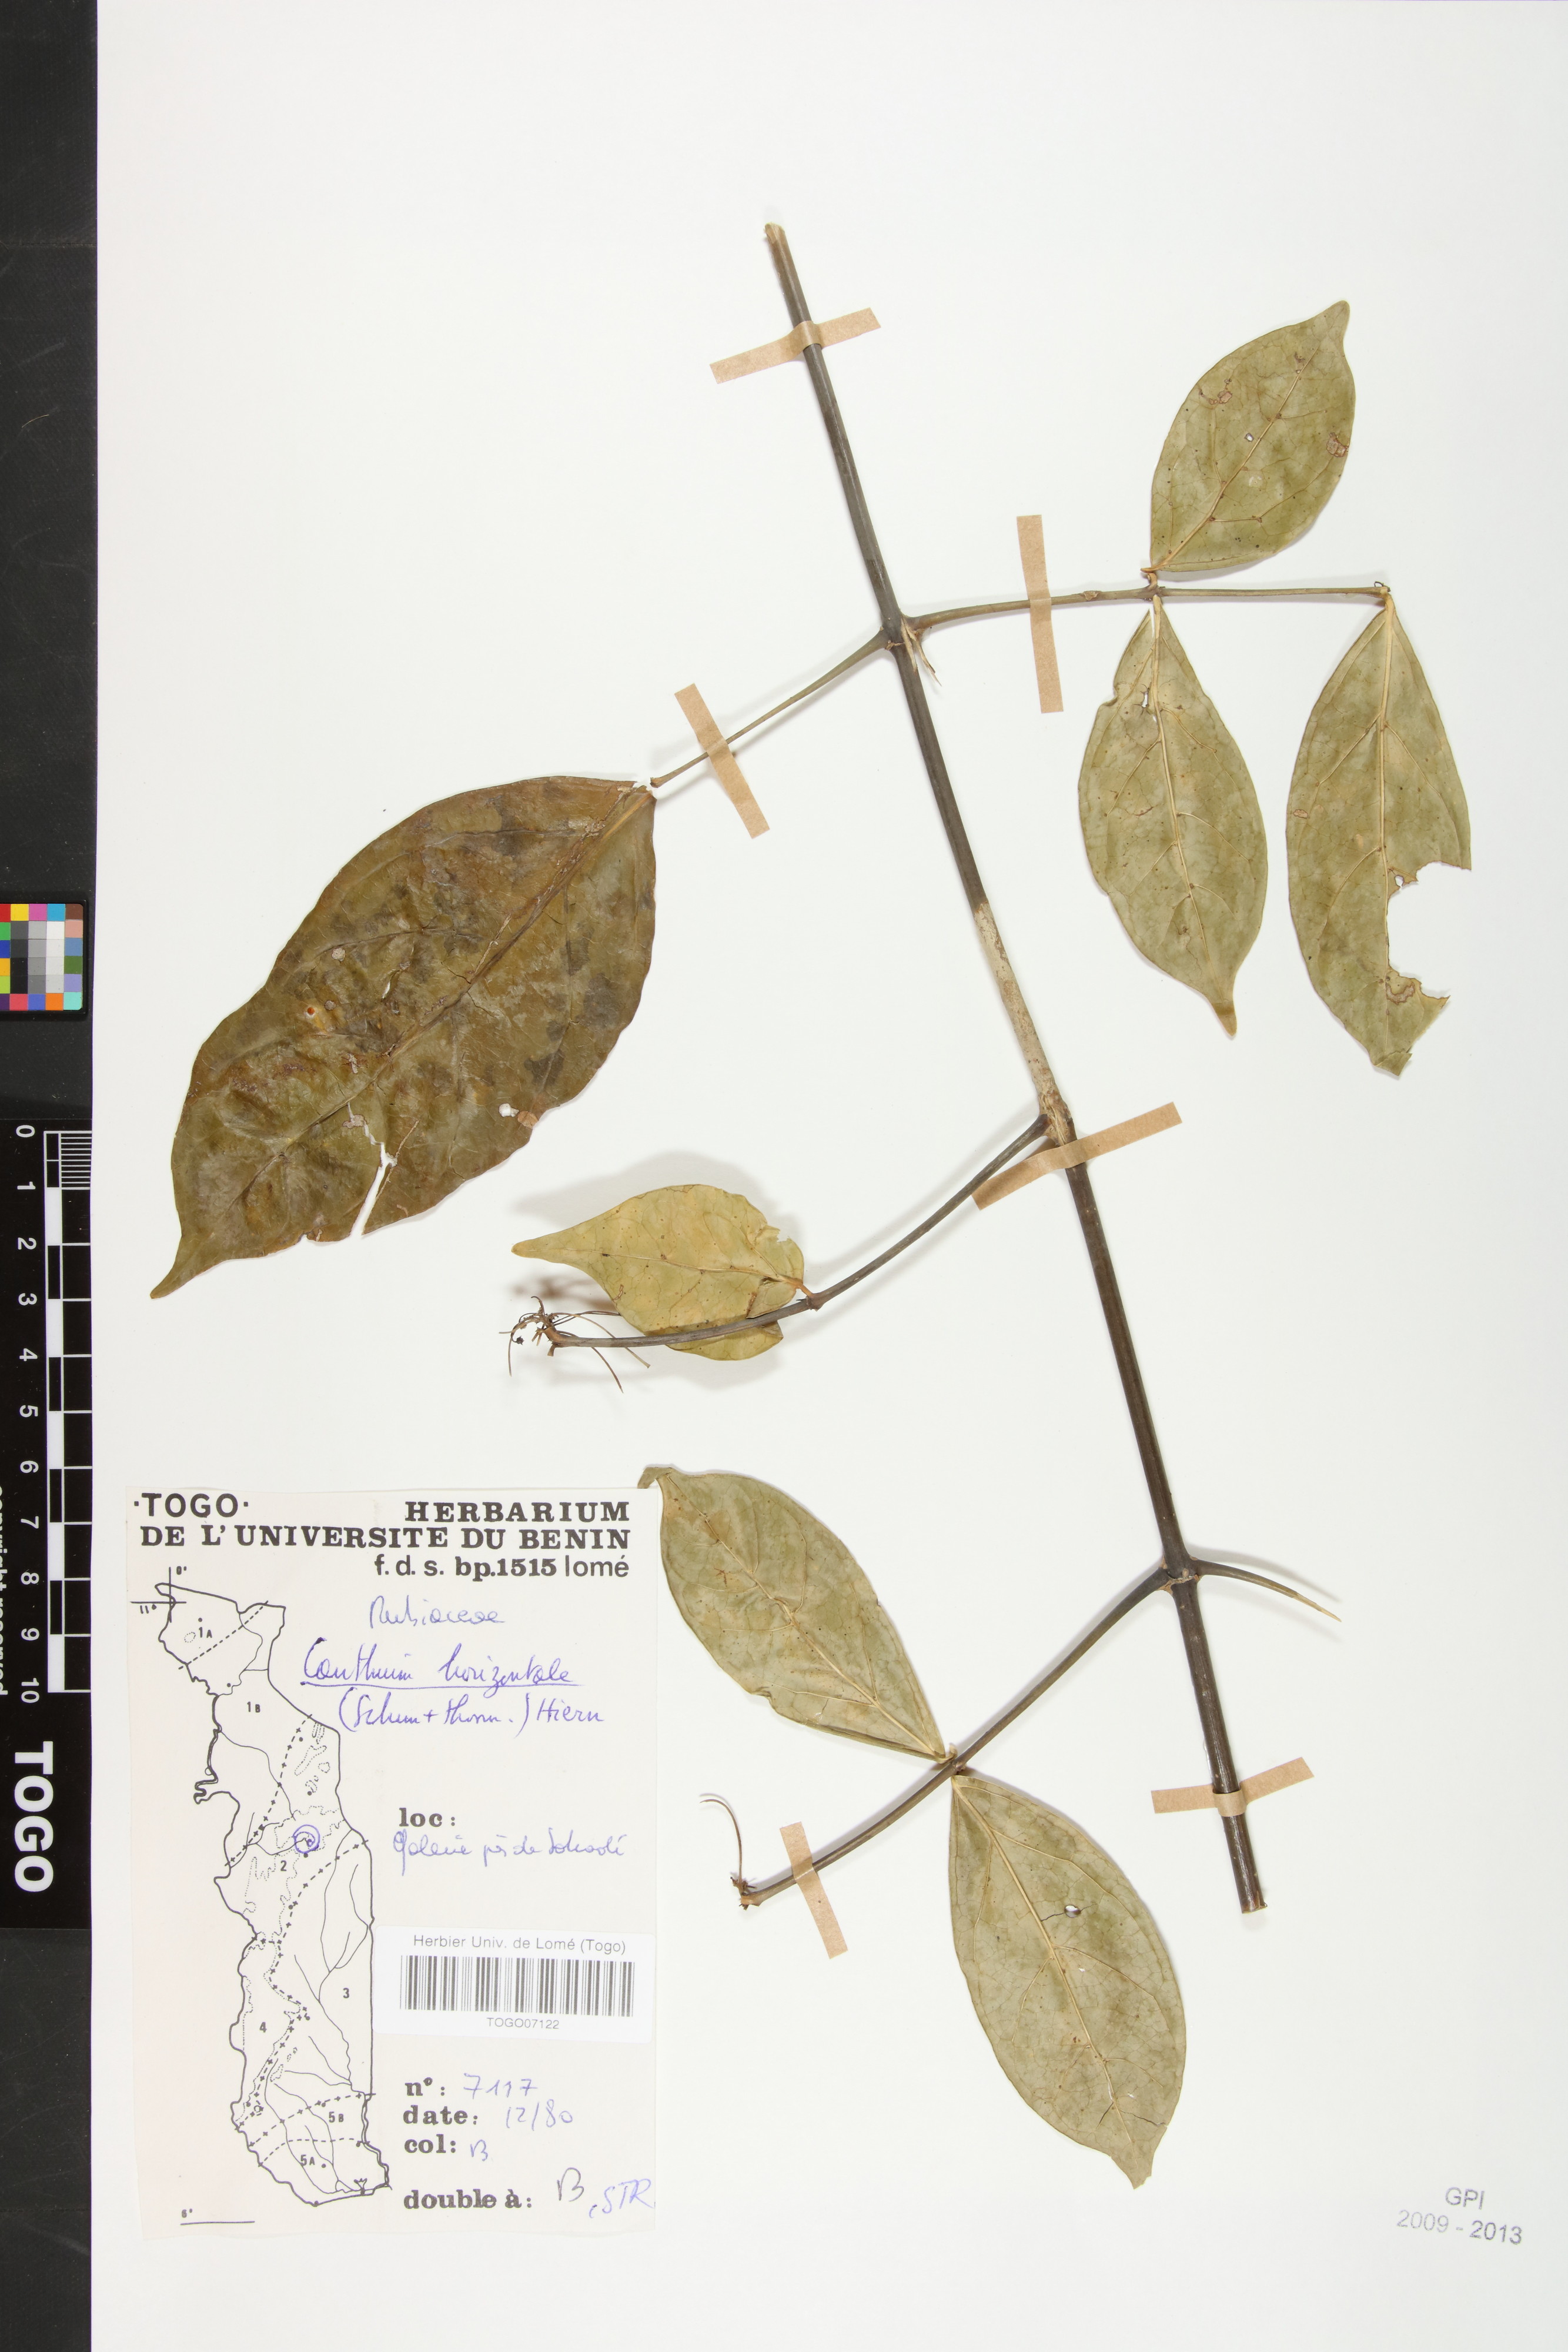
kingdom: Plantae
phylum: Tracheophyta
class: Magnoliopsida
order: Gentianales
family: Rubiaceae
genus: Psydrax
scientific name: Psydrax horizontalis
